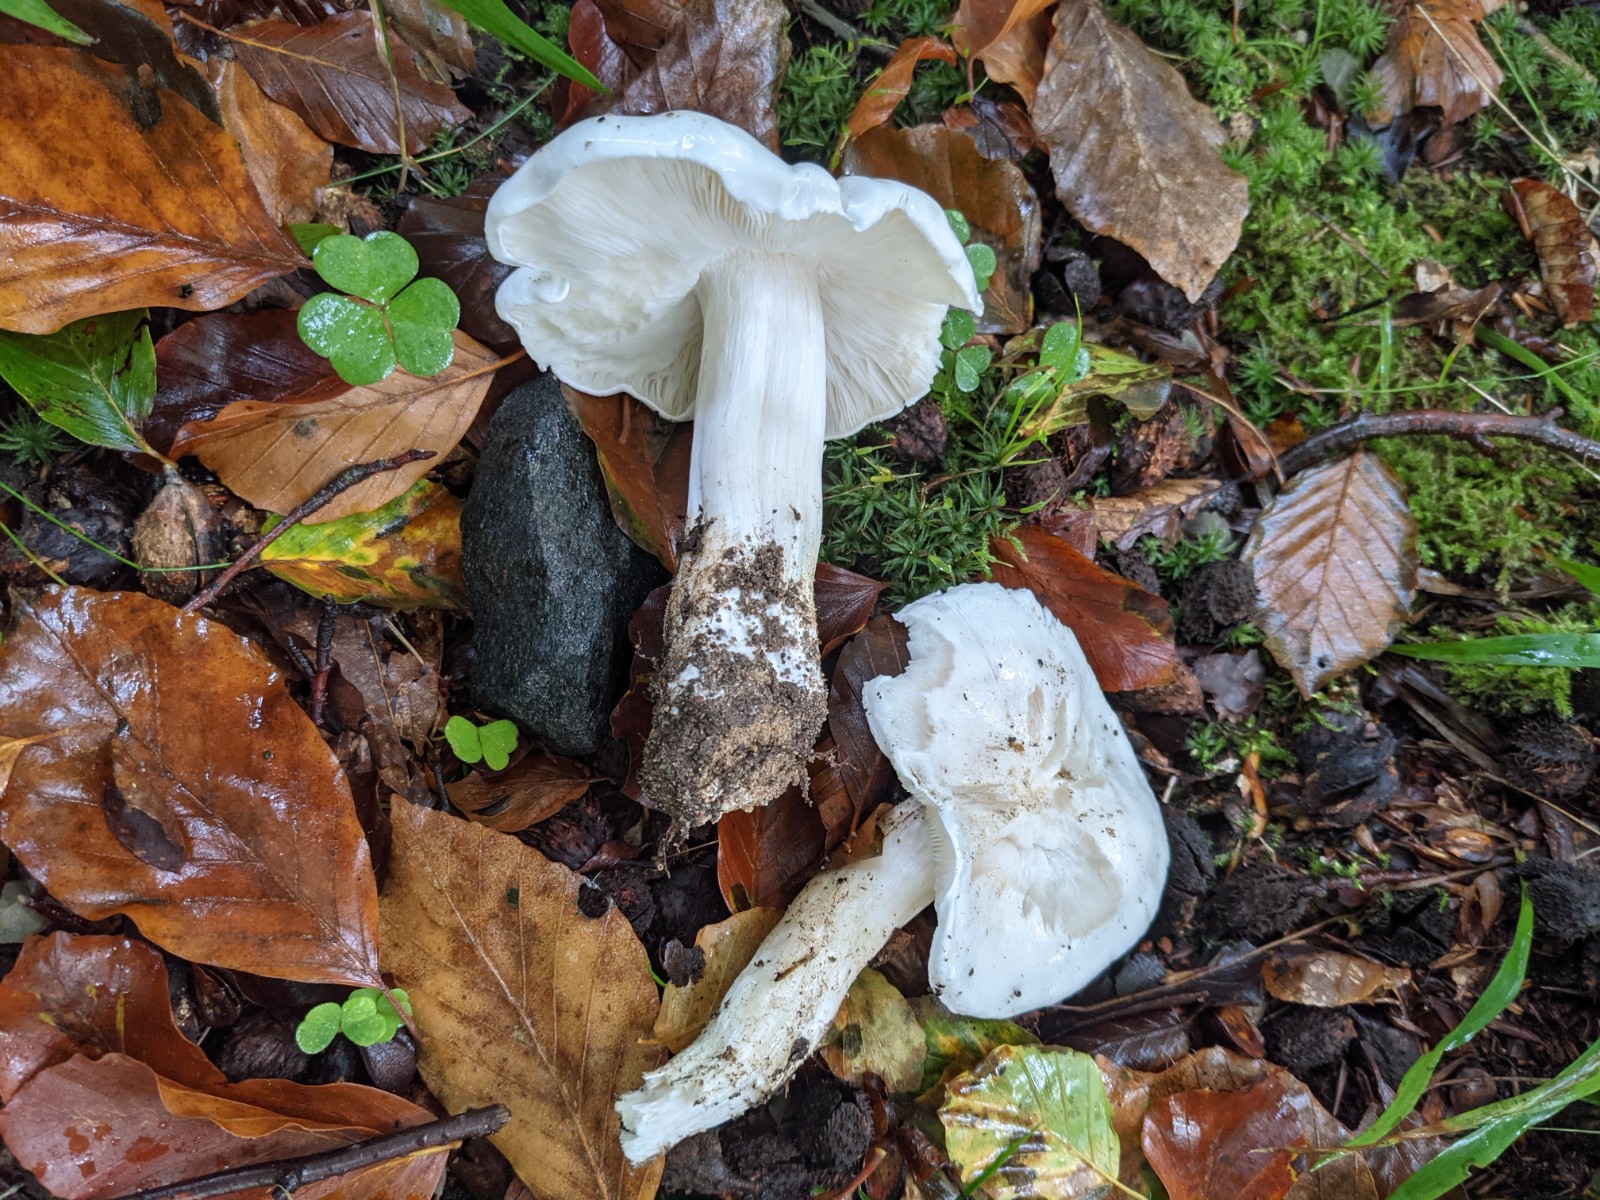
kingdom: Fungi
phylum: Basidiomycota
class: Agaricomycetes
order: Agaricales
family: Tricholomataceae
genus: Tricholoma
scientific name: Tricholoma columbetta
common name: silke-ridderhat
